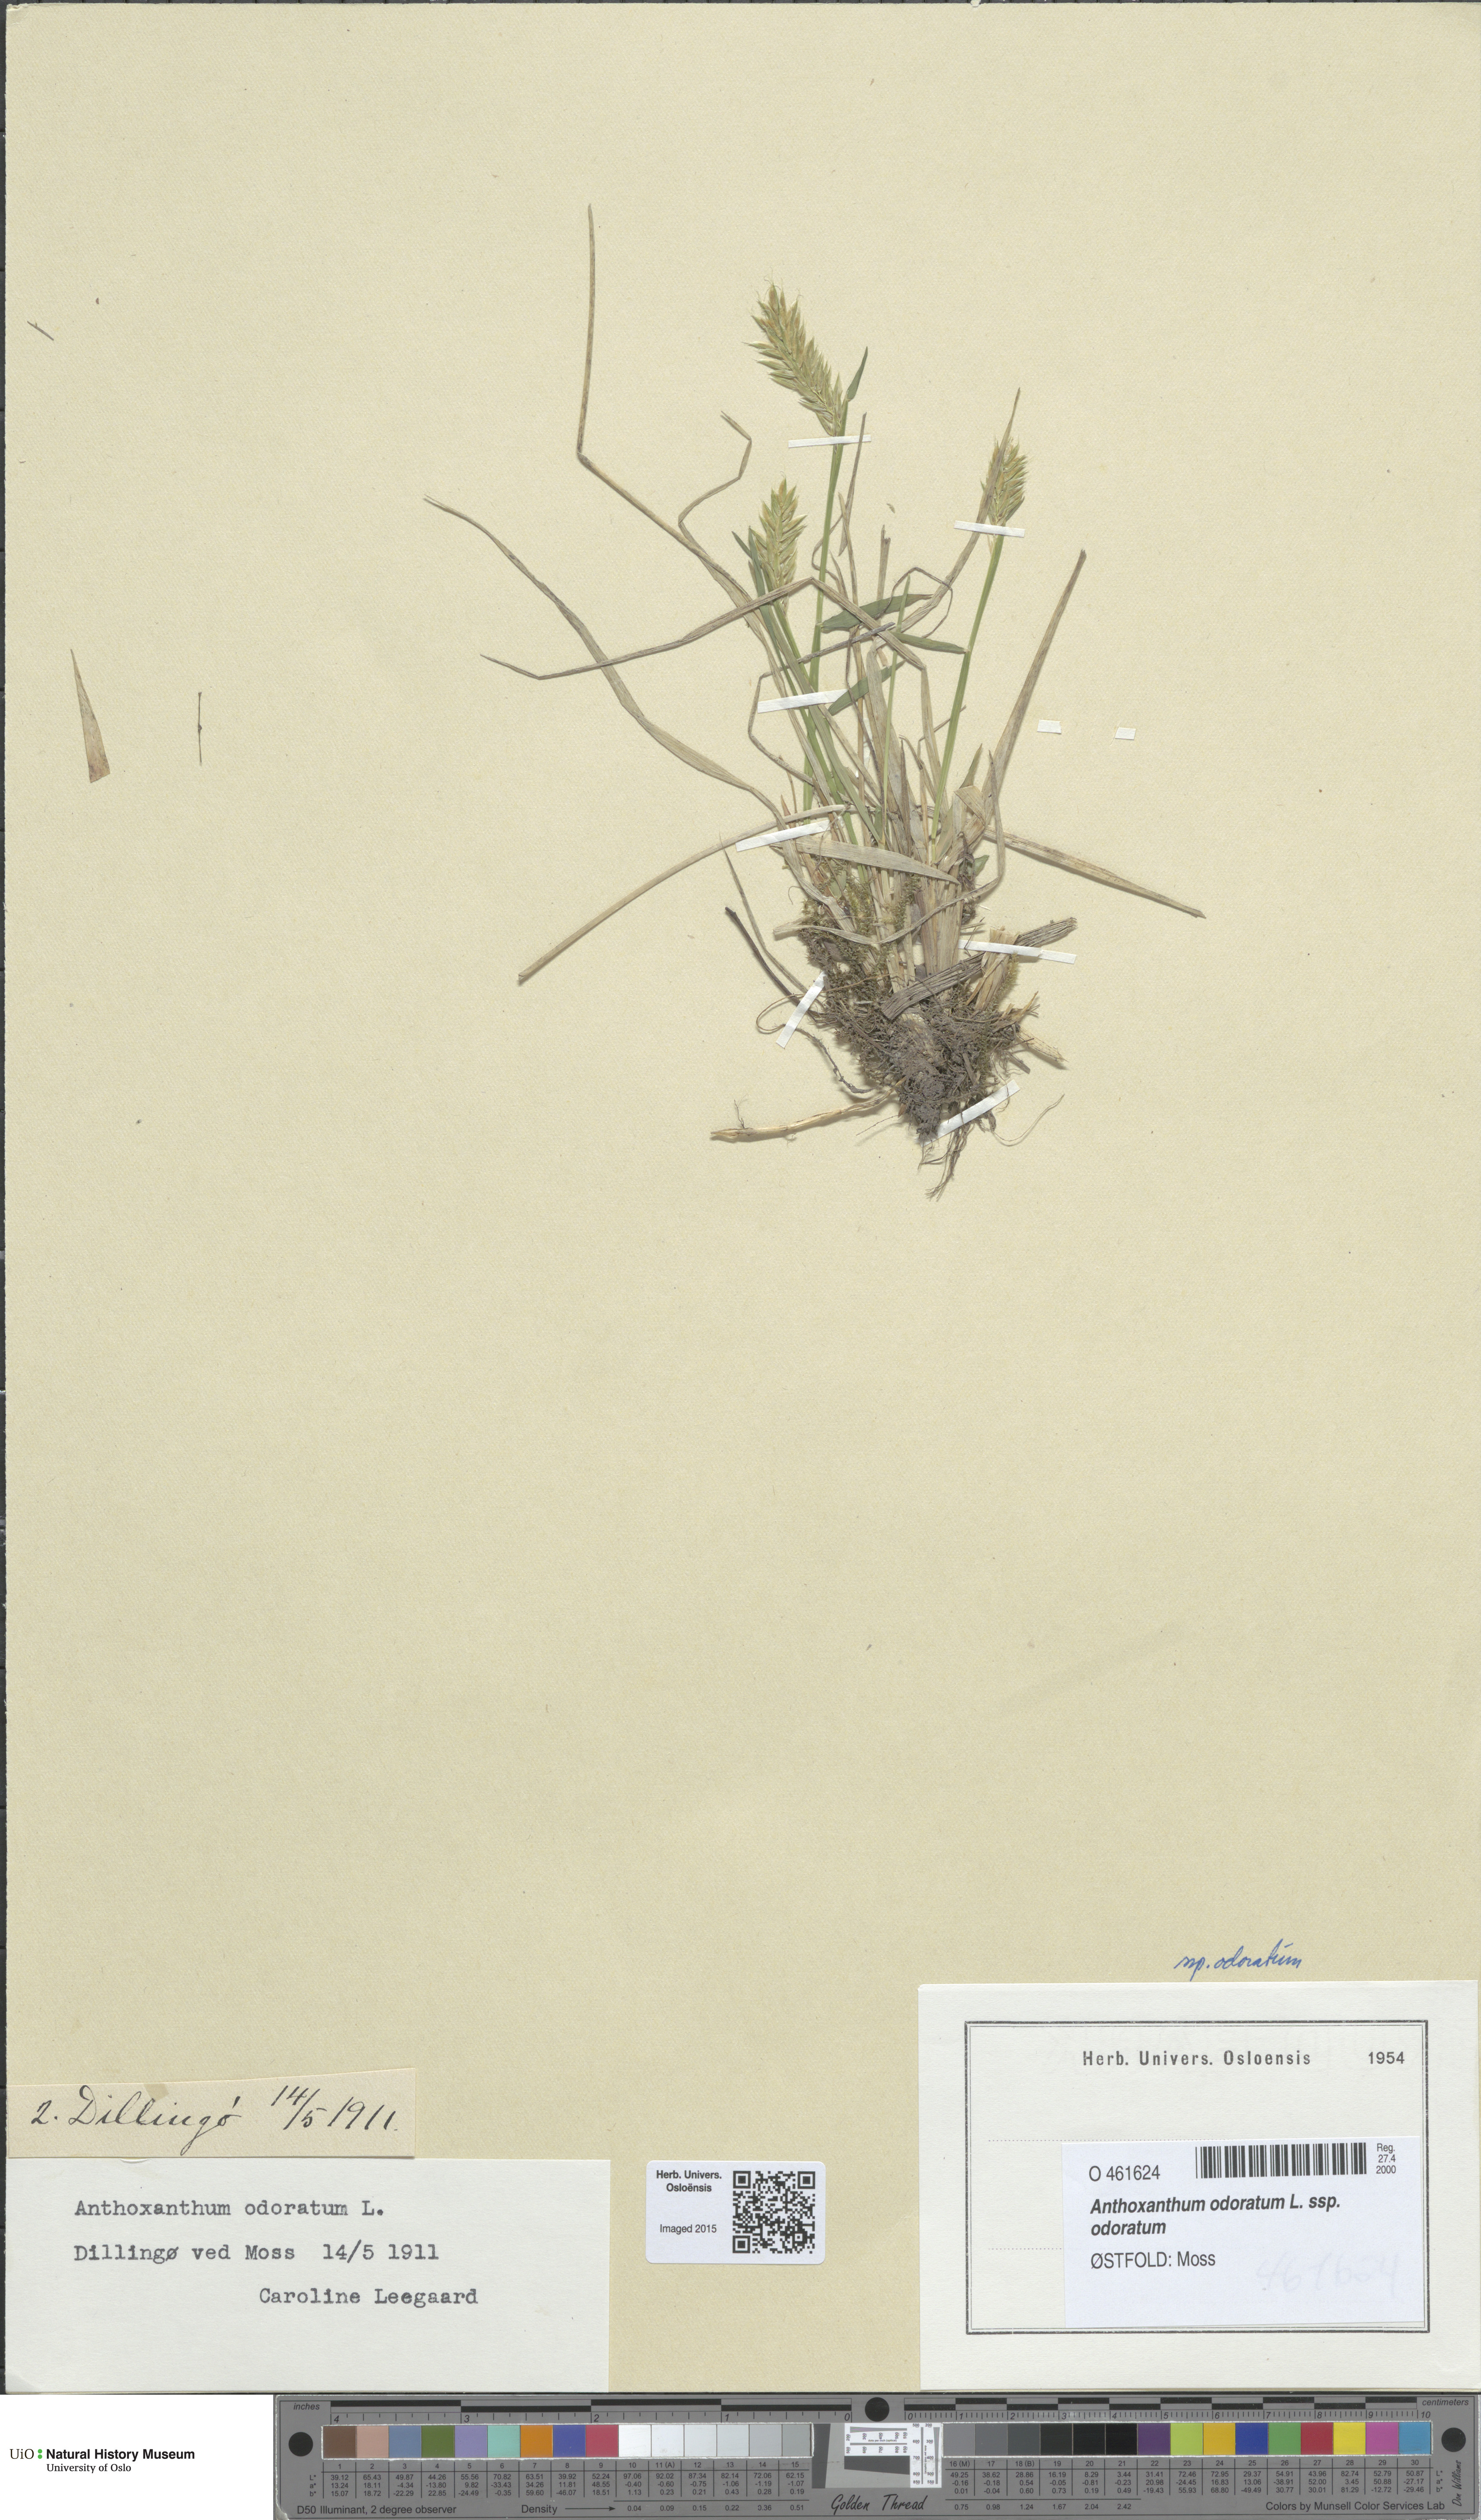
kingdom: Plantae
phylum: Tracheophyta
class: Liliopsida
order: Poales
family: Poaceae
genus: Anthoxanthum
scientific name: Anthoxanthum odoratum
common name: Sweet vernalgrass
